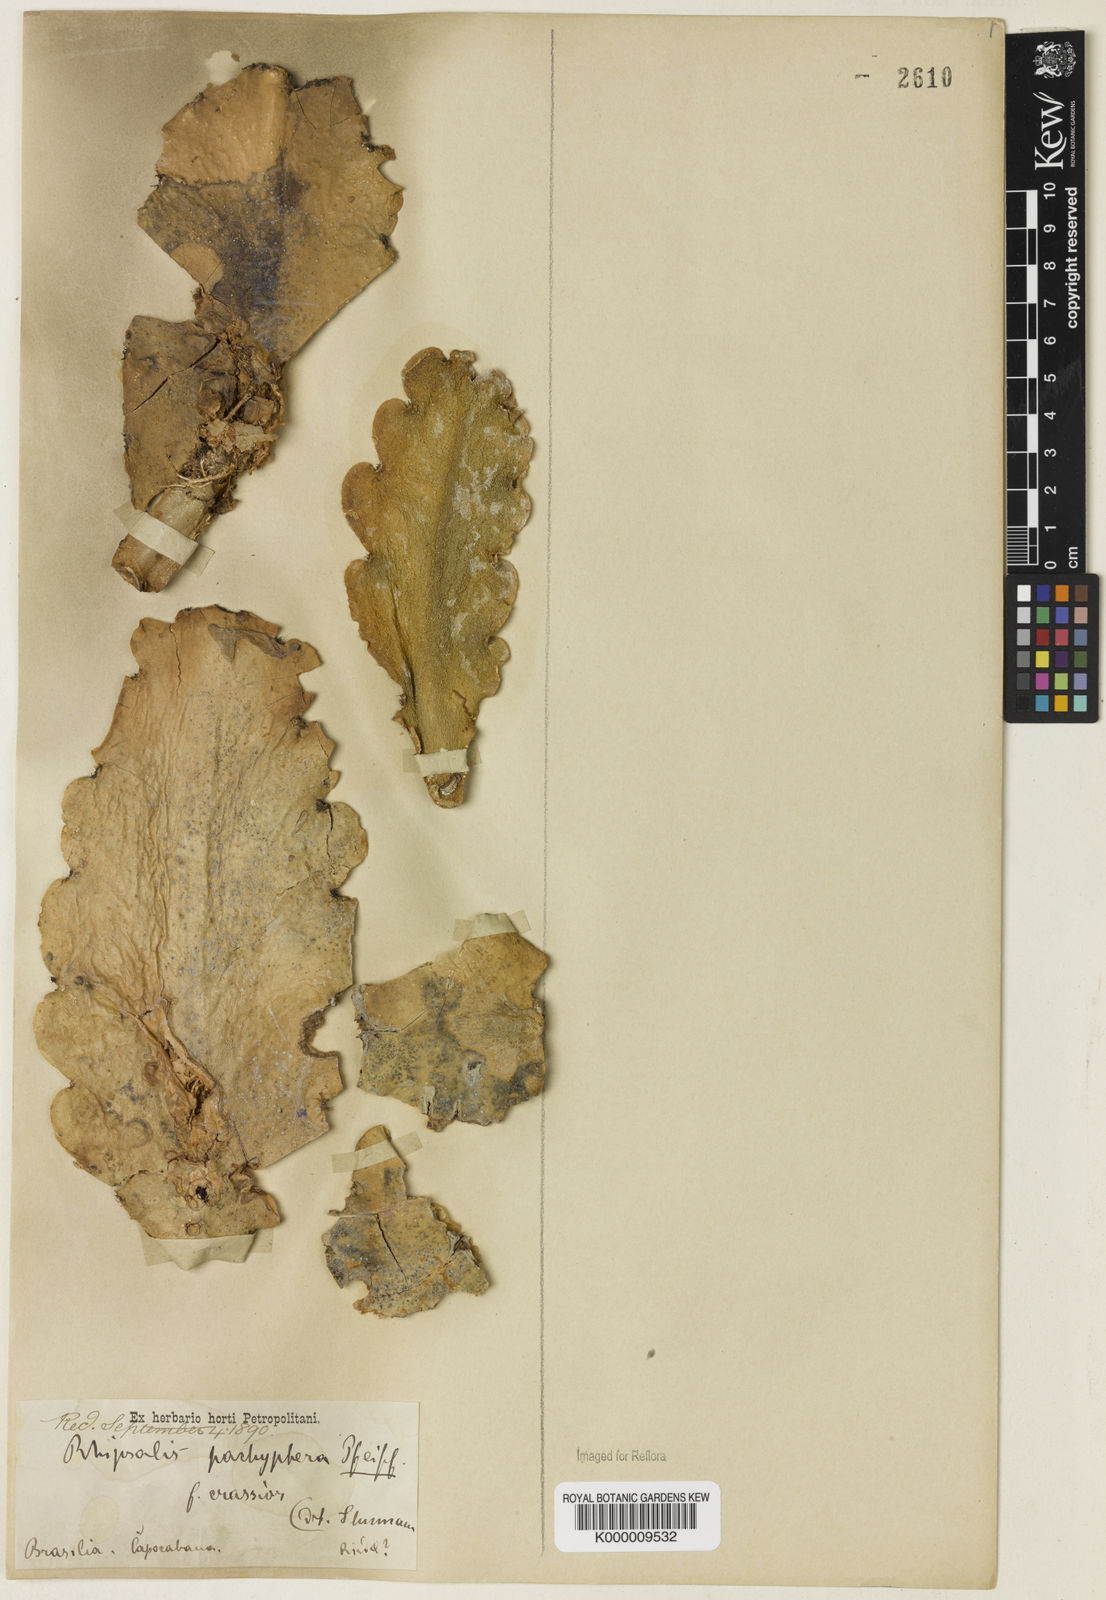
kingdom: Plantae
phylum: Tracheophyta
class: Magnoliopsida
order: Caryophyllales
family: Cactaceae
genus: Rhipsalis
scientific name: Rhipsalis pachyptera
